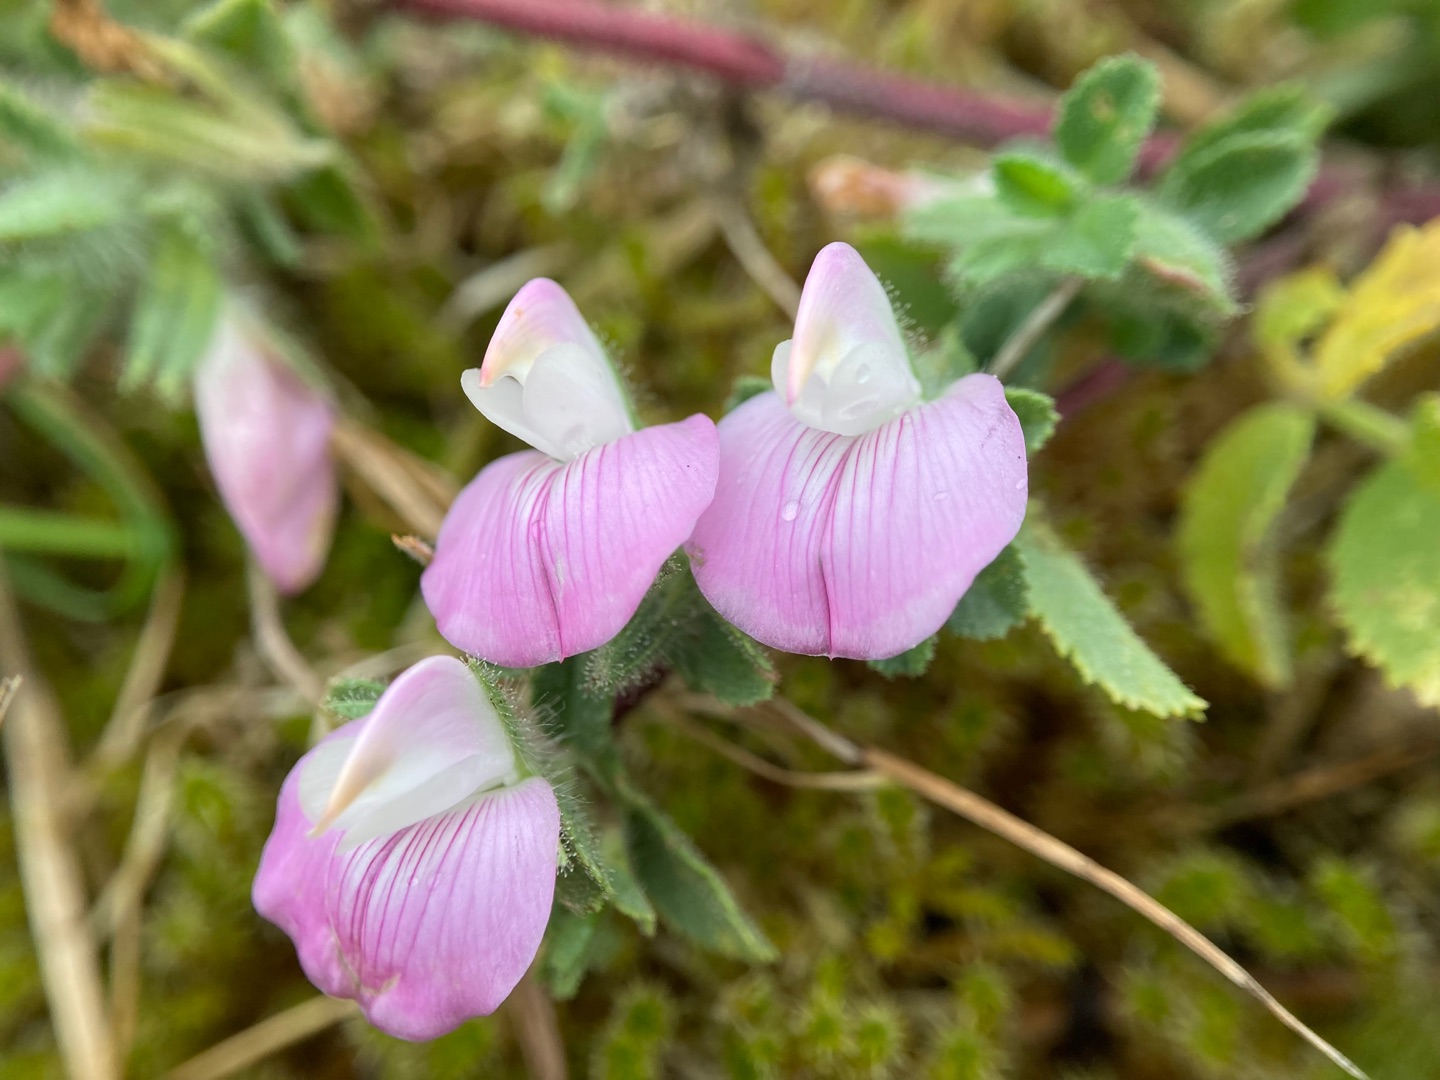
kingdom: Plantae
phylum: Tracheophyta
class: Magnoliopsida
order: Fabales
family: Fabaceae
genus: Ononis
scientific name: Ononis spinosa
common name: Mark-krageklo
